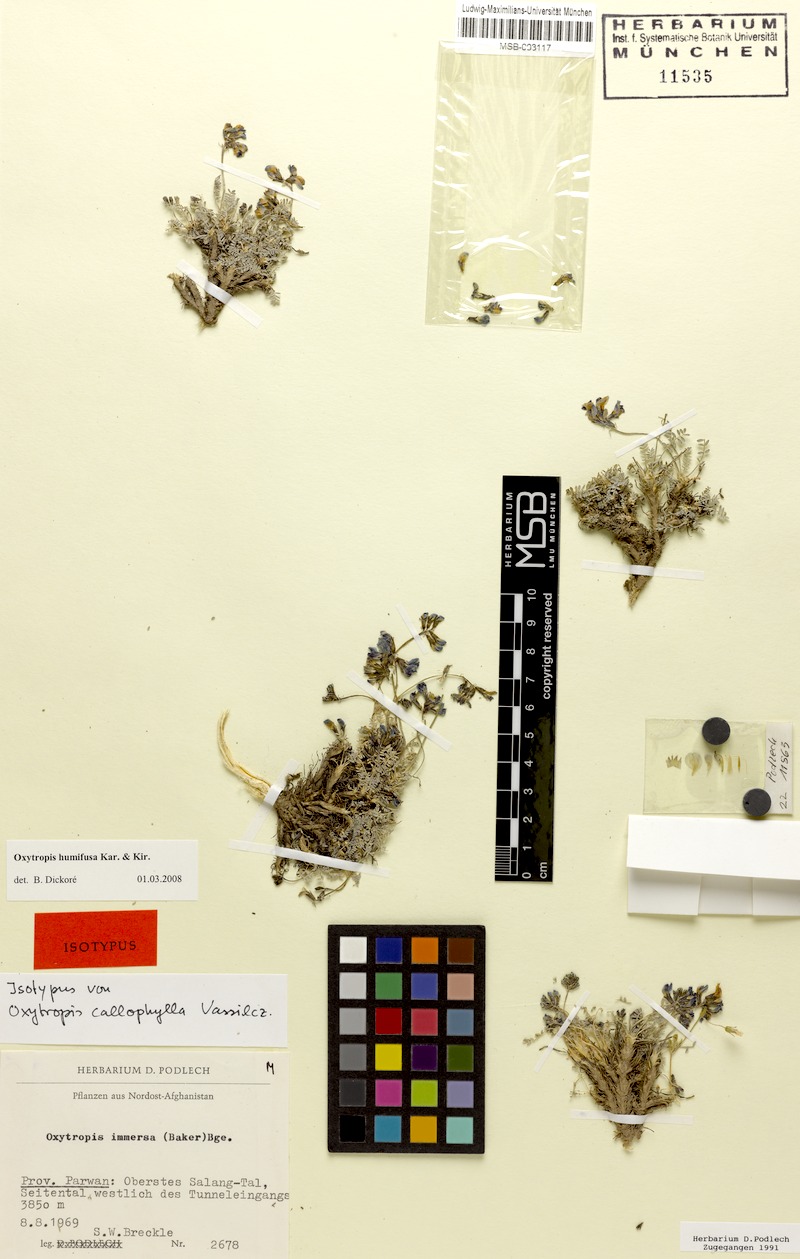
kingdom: Plantae
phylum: Tracheophyta
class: Magnoliopsida
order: Fabales
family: Fabaceae
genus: Oxytropis
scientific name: Oxytropis humifusa
